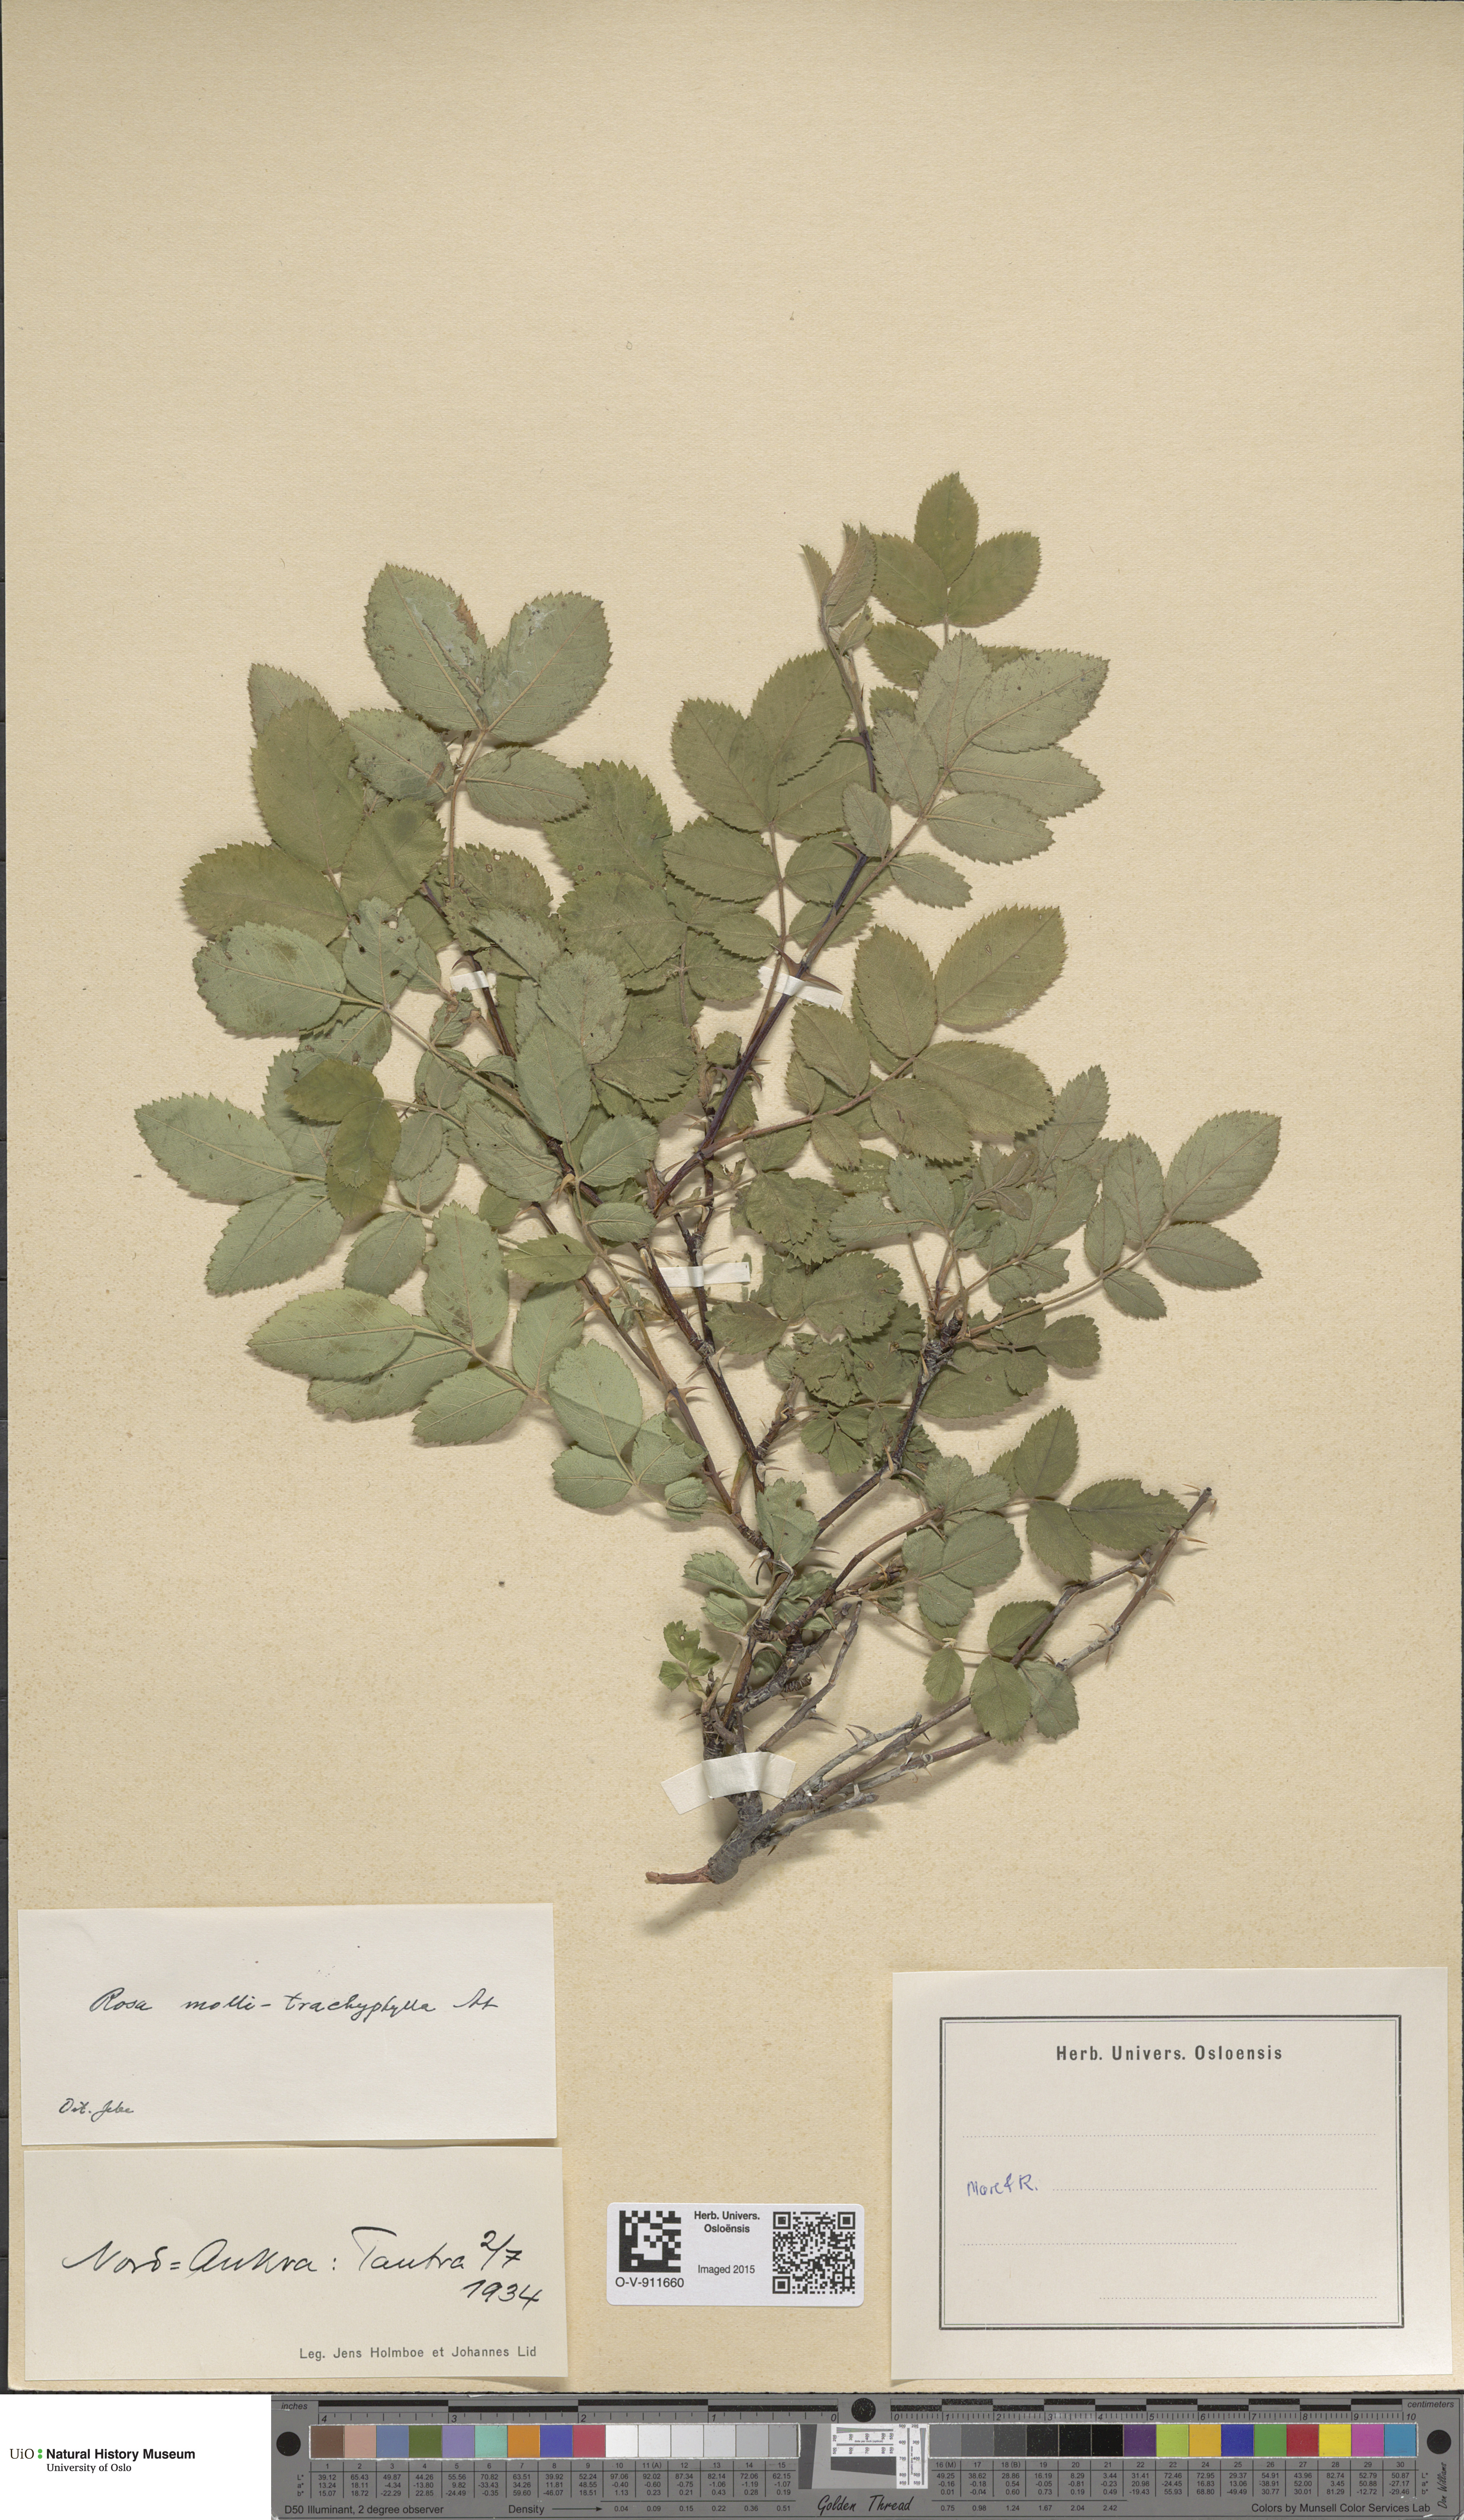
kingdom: Plantae
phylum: Tracheophyta
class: Magnoliopsida
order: Rosales
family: Rosaceae
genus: Rosa
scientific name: Rosa mollis
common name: Rose
